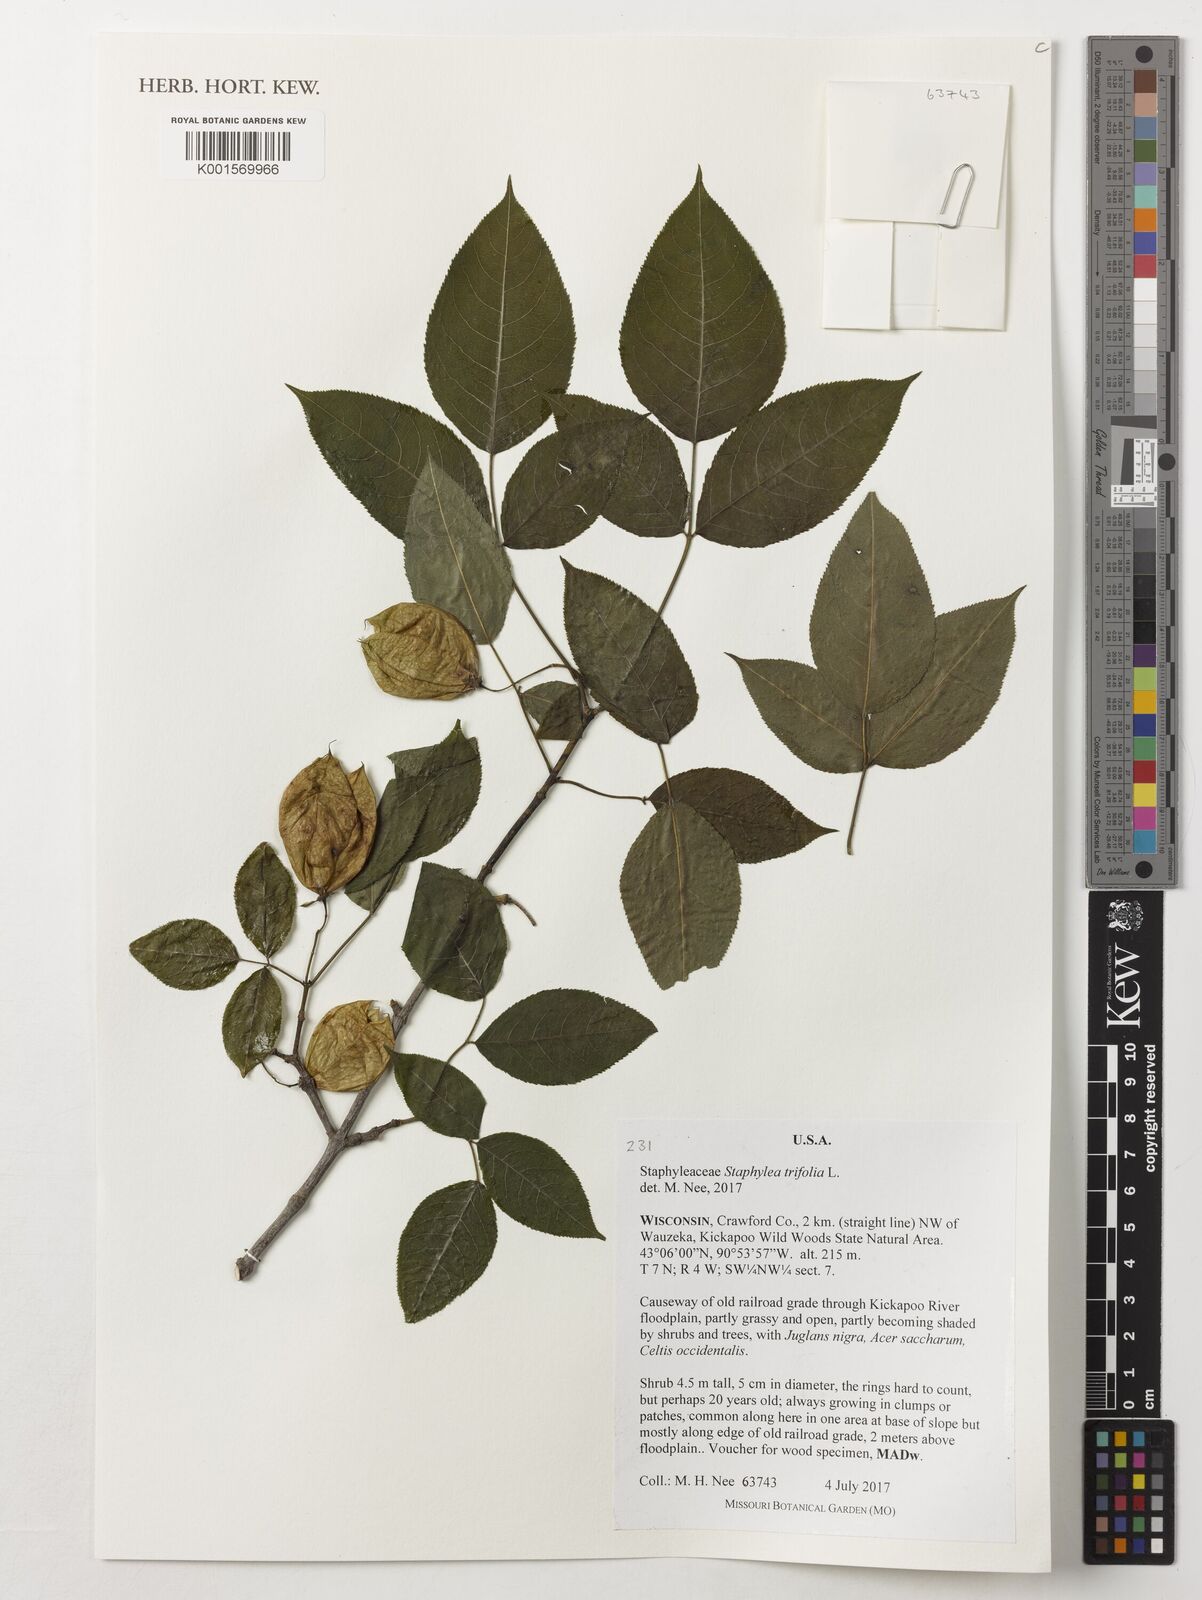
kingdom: Plantae
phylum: Tracheophyta
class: Magnoliopsida
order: Crossosomatales
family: Staphyleaceae
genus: Staphylea
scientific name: Staphylea trifolia
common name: American bladdernut
